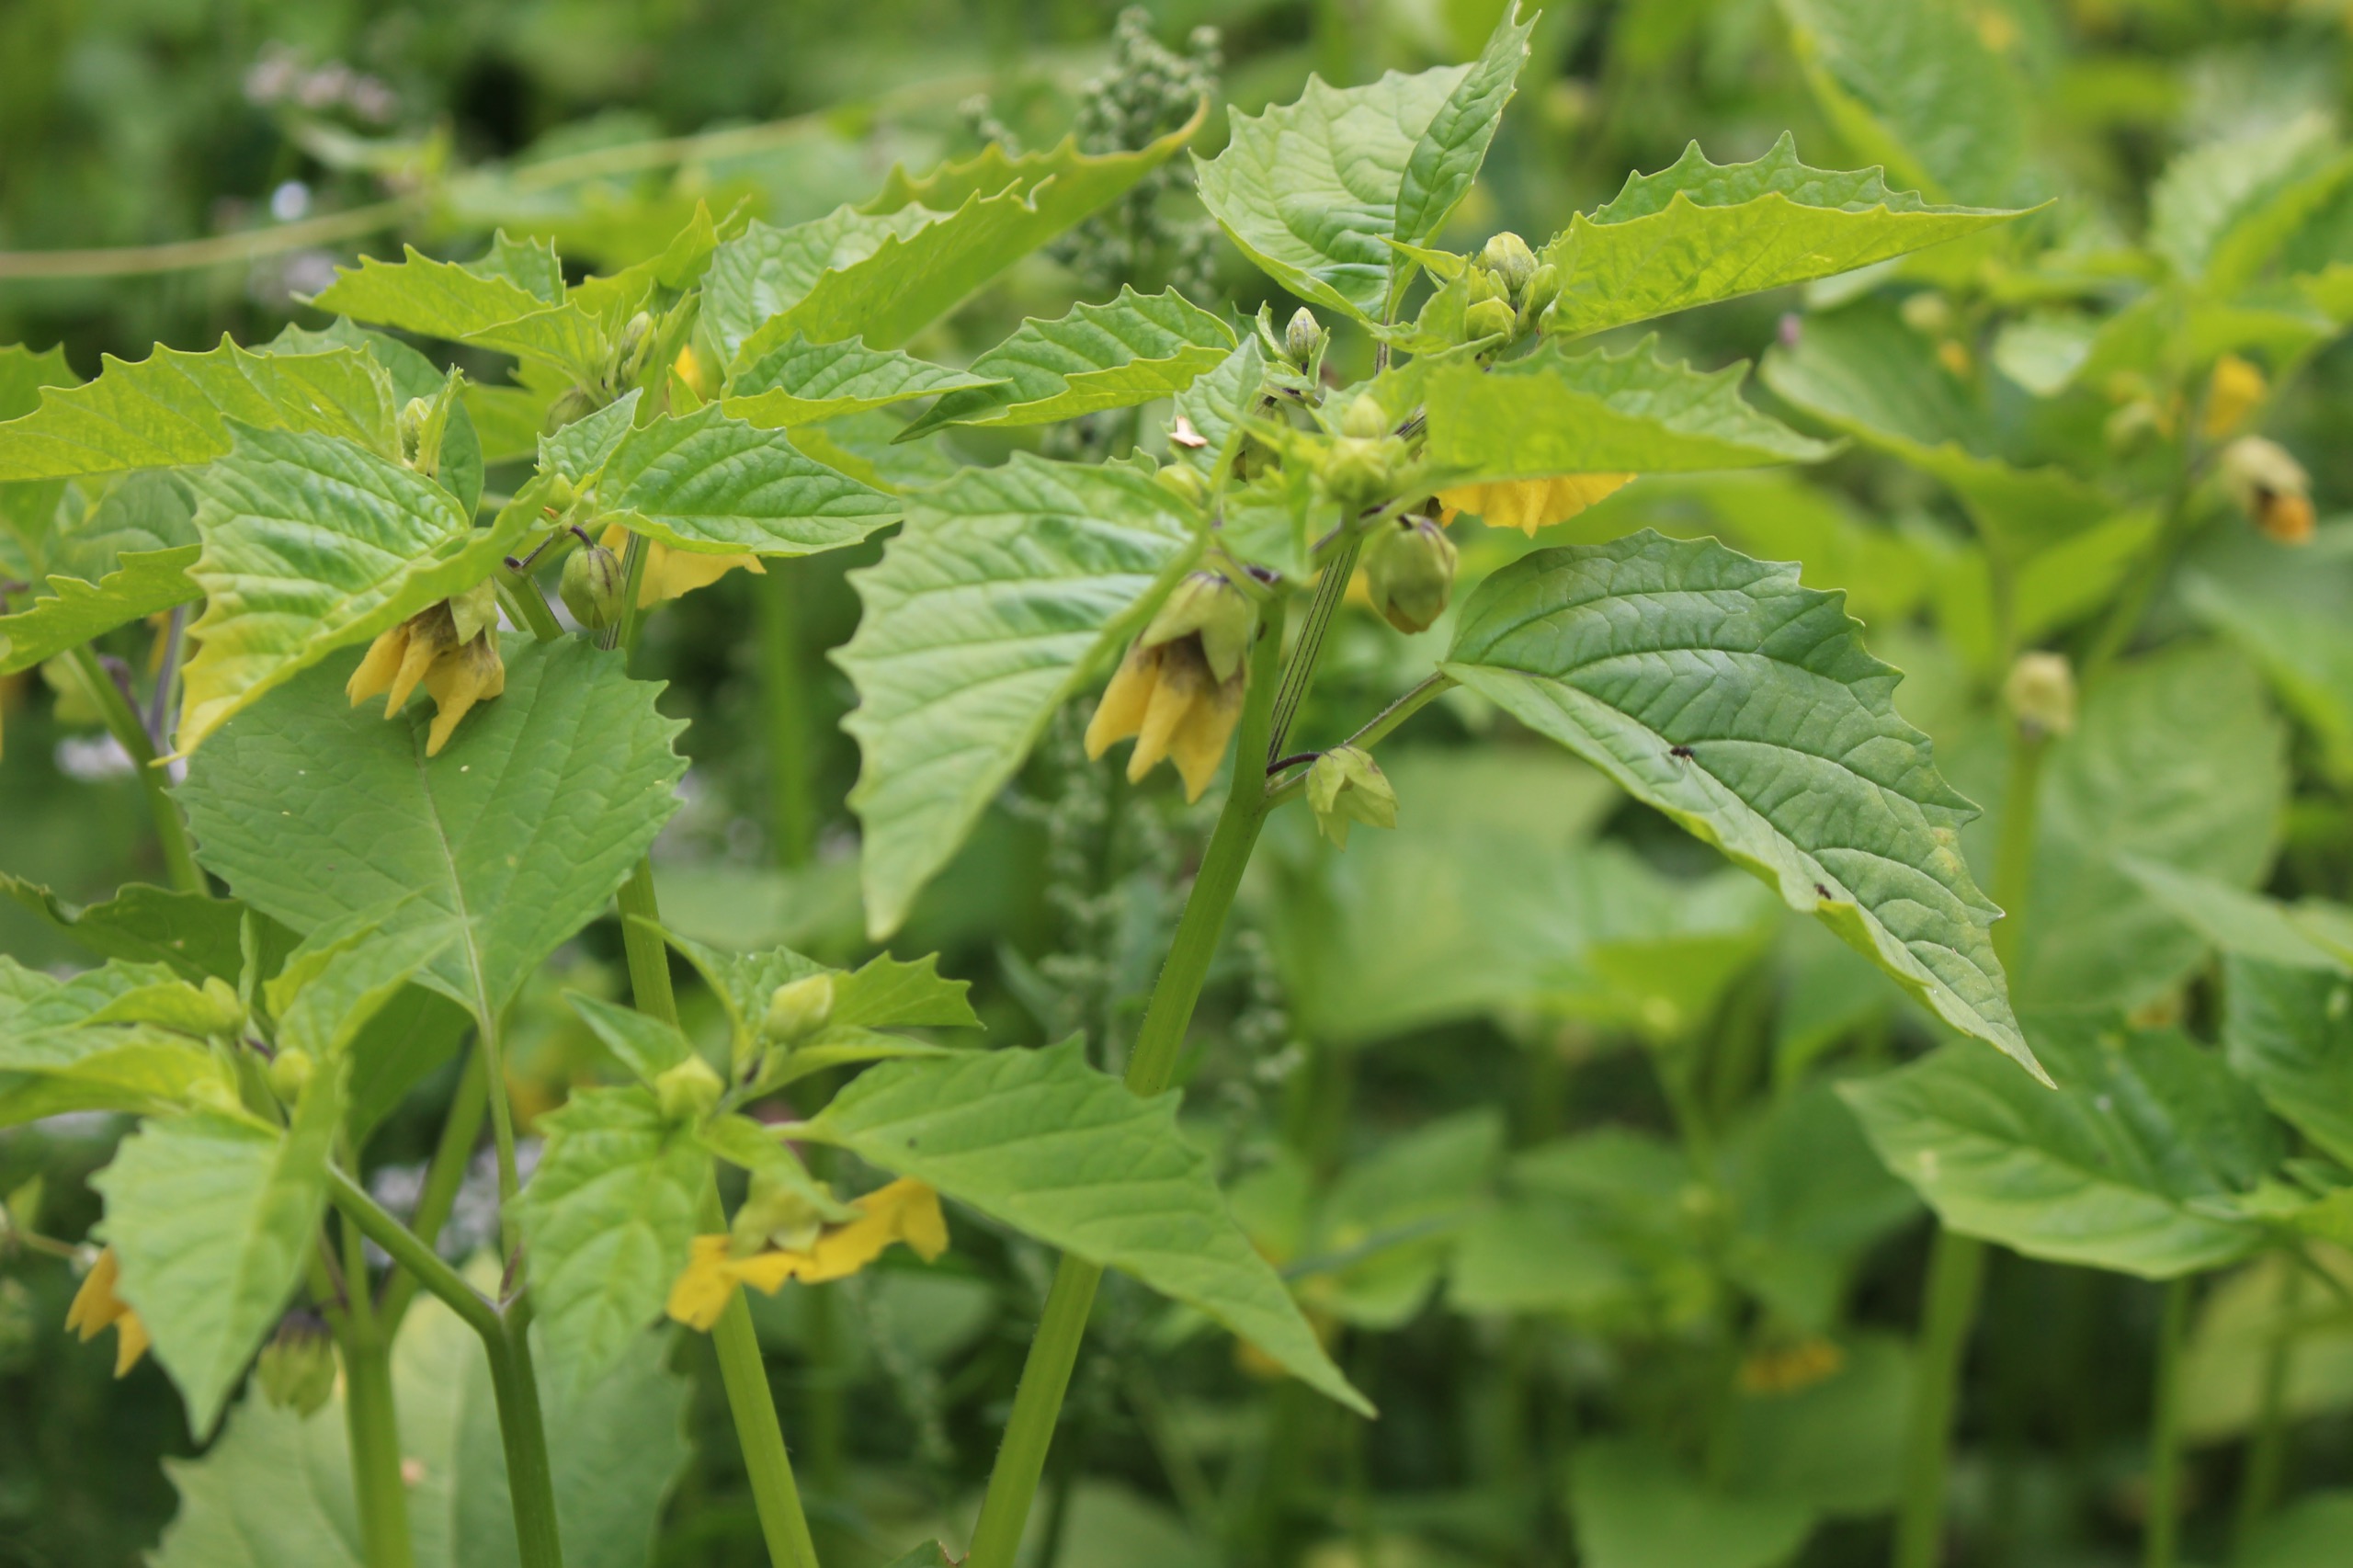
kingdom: Plantae
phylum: Tracheophyta
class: Magnoliopsida
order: Solanales
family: Solanaceae
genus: Physalis
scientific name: Physalis philadelphica
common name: Tomatillo
